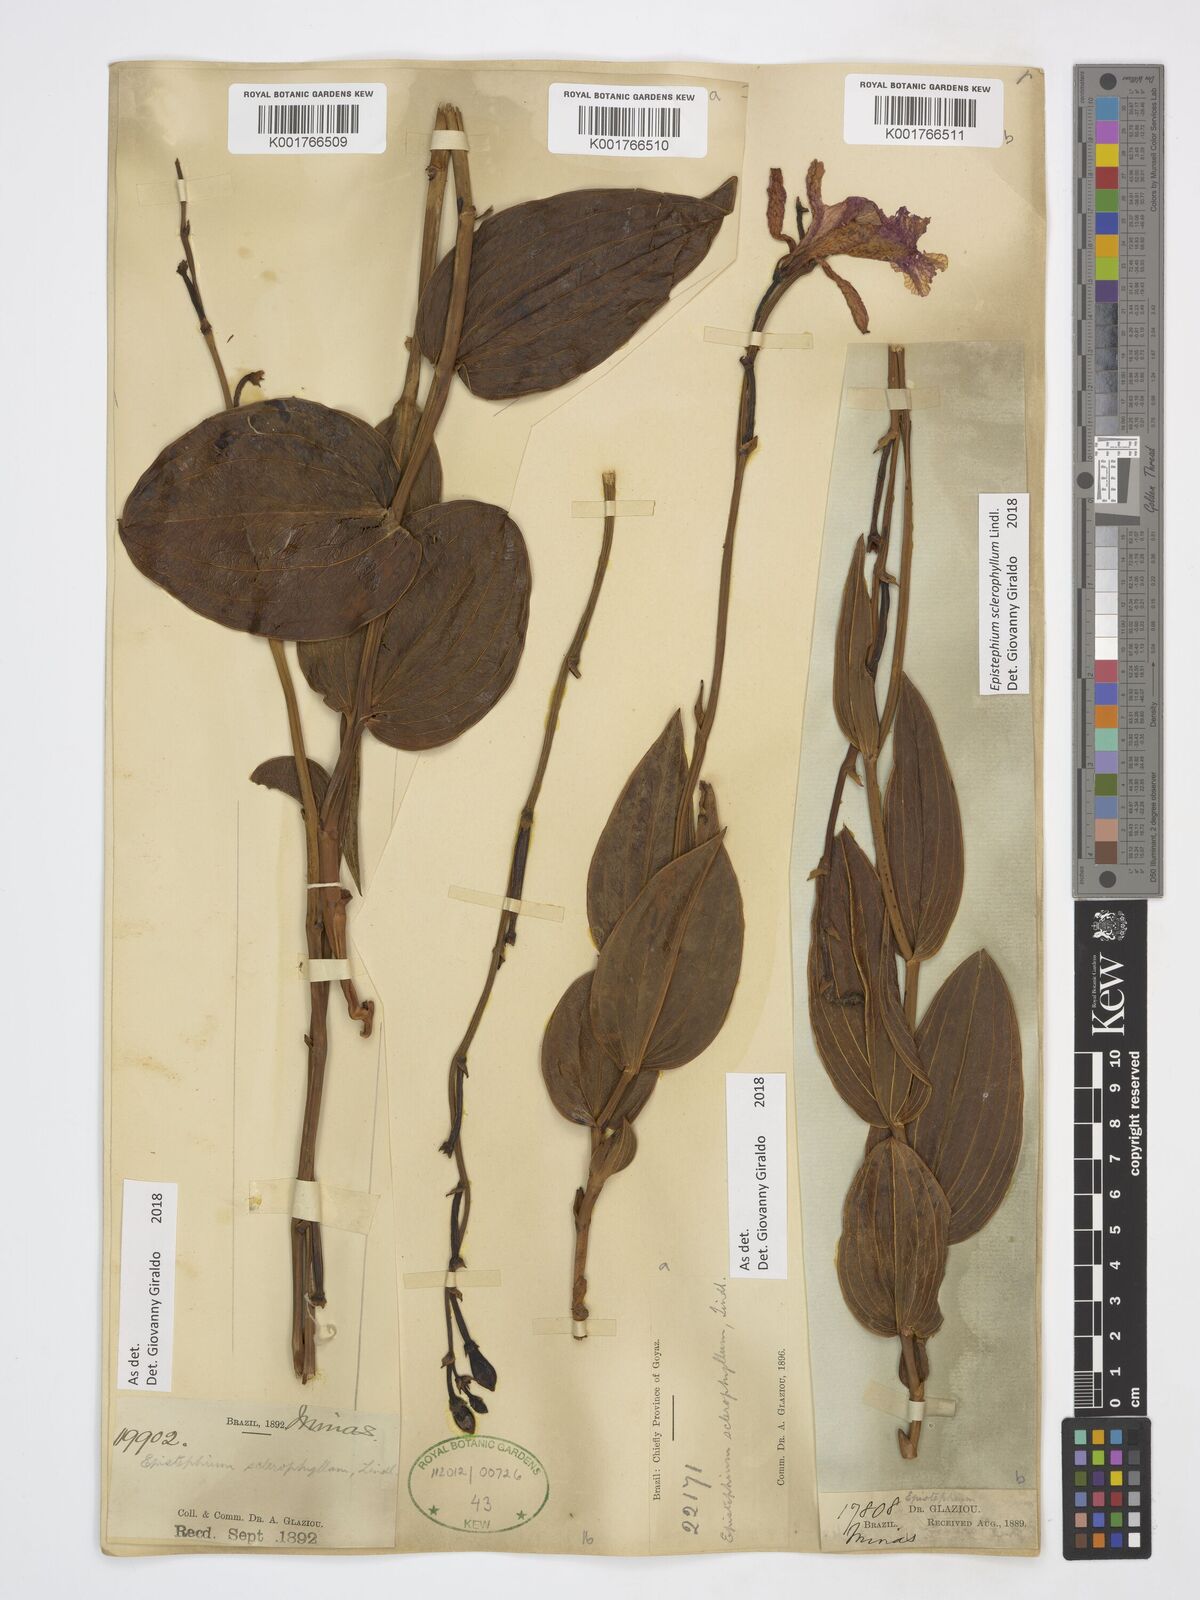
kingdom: Plantae
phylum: Tracheophyta
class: Liliopsida
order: Asparagales
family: Orchidaceae
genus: Epistephium
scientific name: Epistephium sclerophyllum
